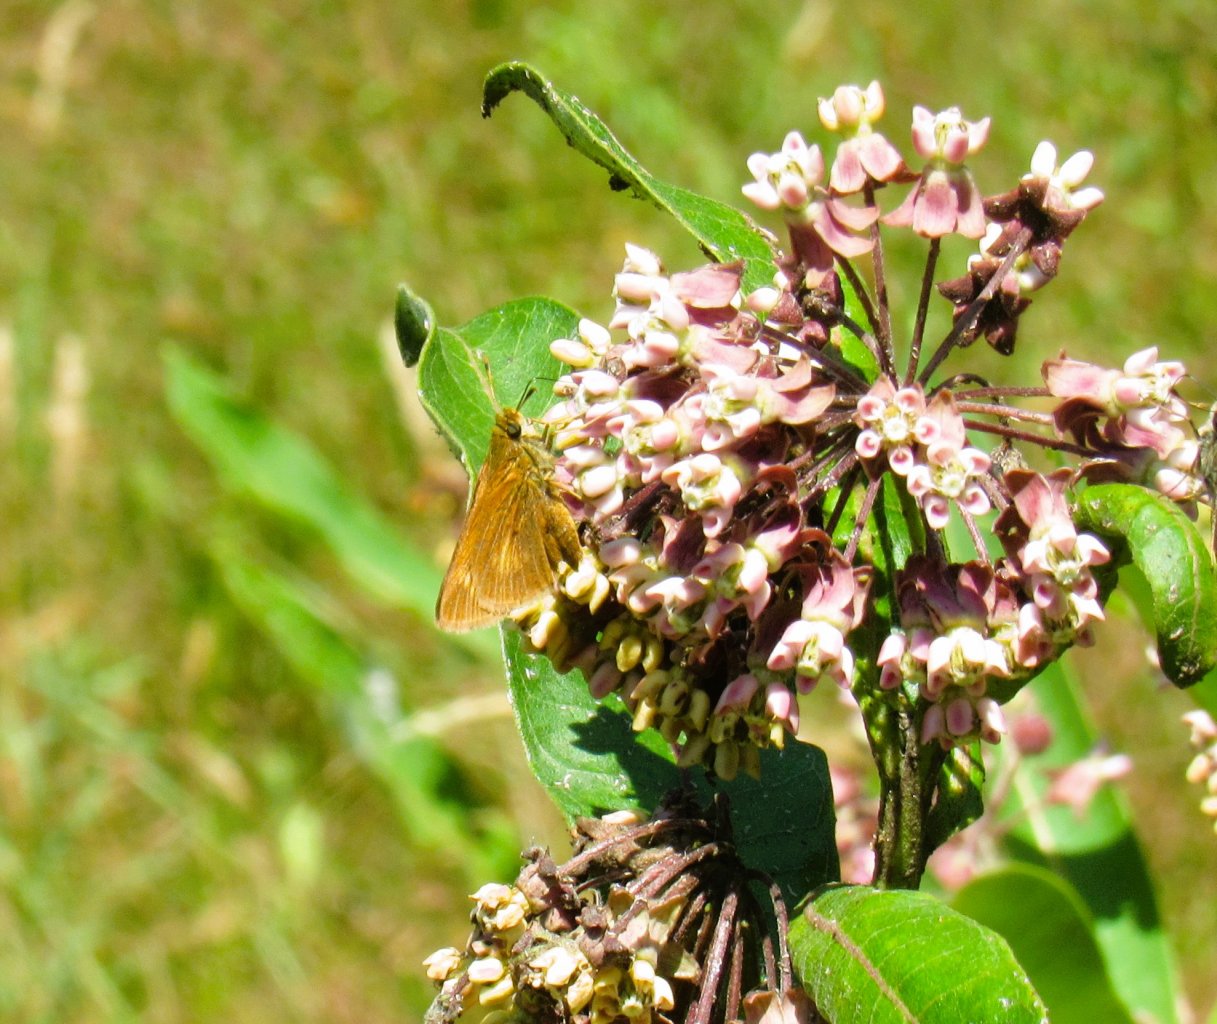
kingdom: Animalia
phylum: Arthropoda
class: Insecta
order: Lepidoptera
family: Hesperiidae
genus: Euphyes
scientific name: Euphyes conspicua
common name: Black Dash
